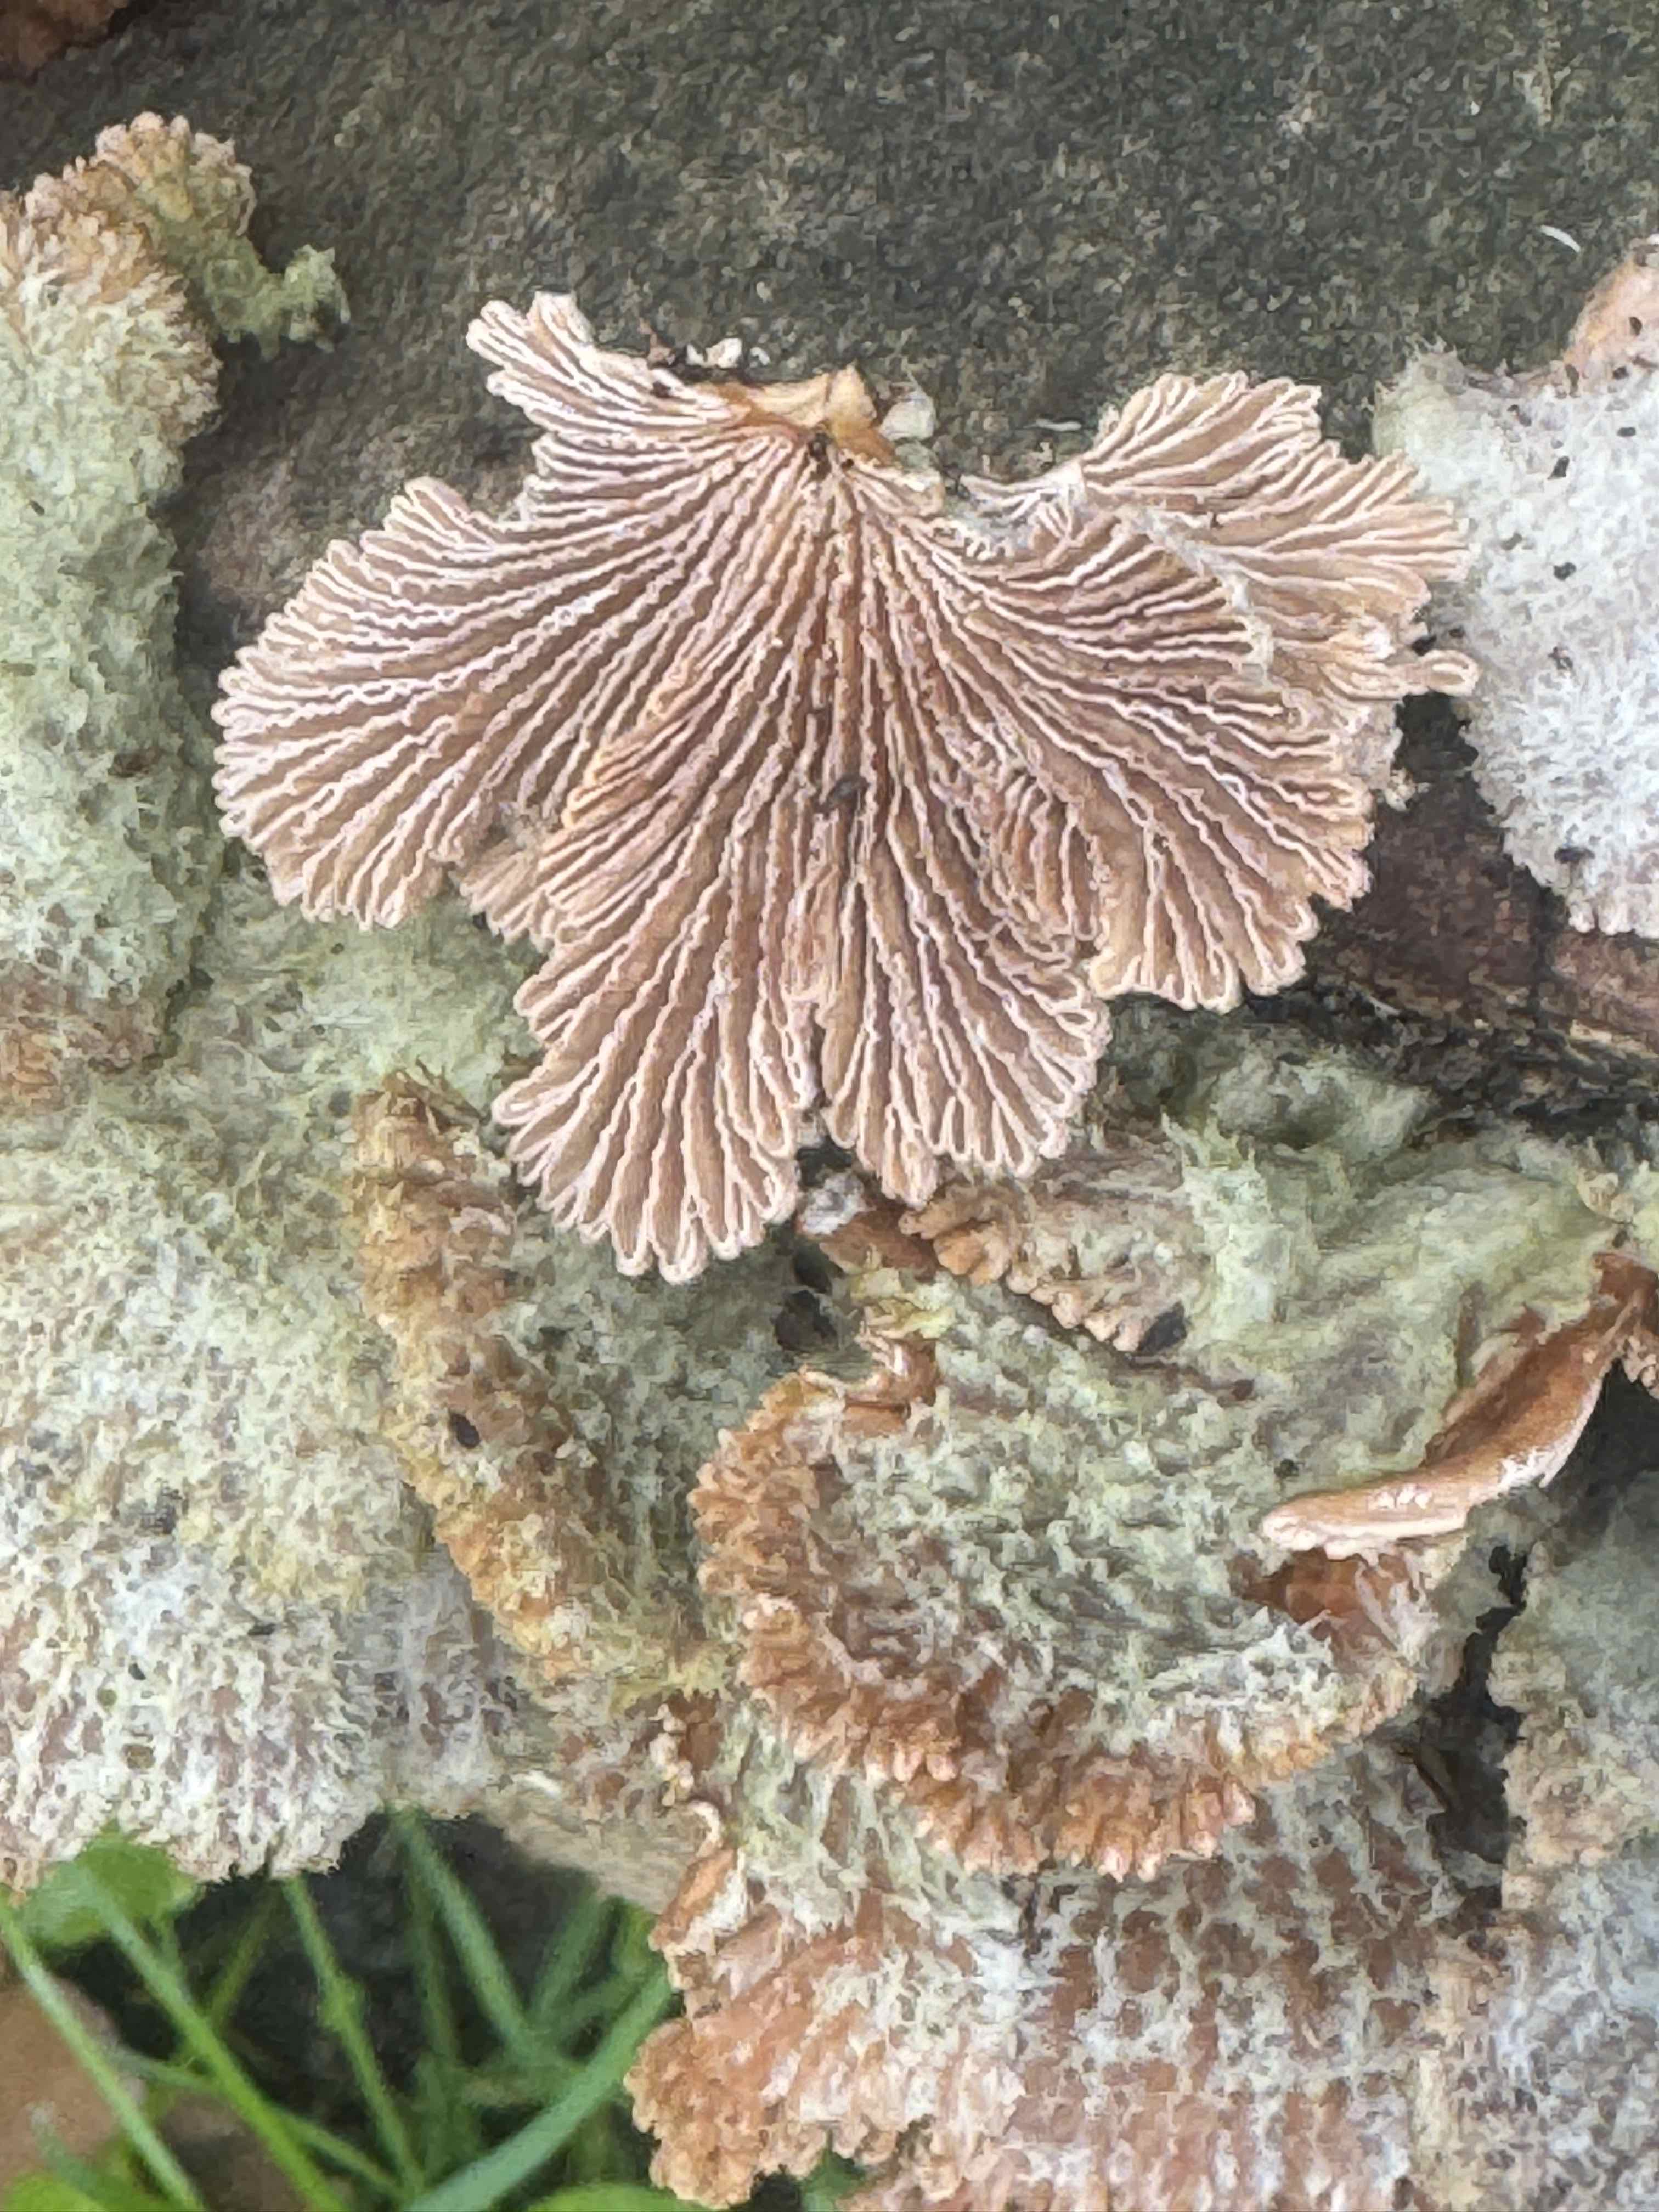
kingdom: Fungi
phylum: Basidiomycota
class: Agaricomycetes
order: Agaricales
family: Schizophyllaceae
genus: Schizophyllum
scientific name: Schizophyllum commune
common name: kløvblad
